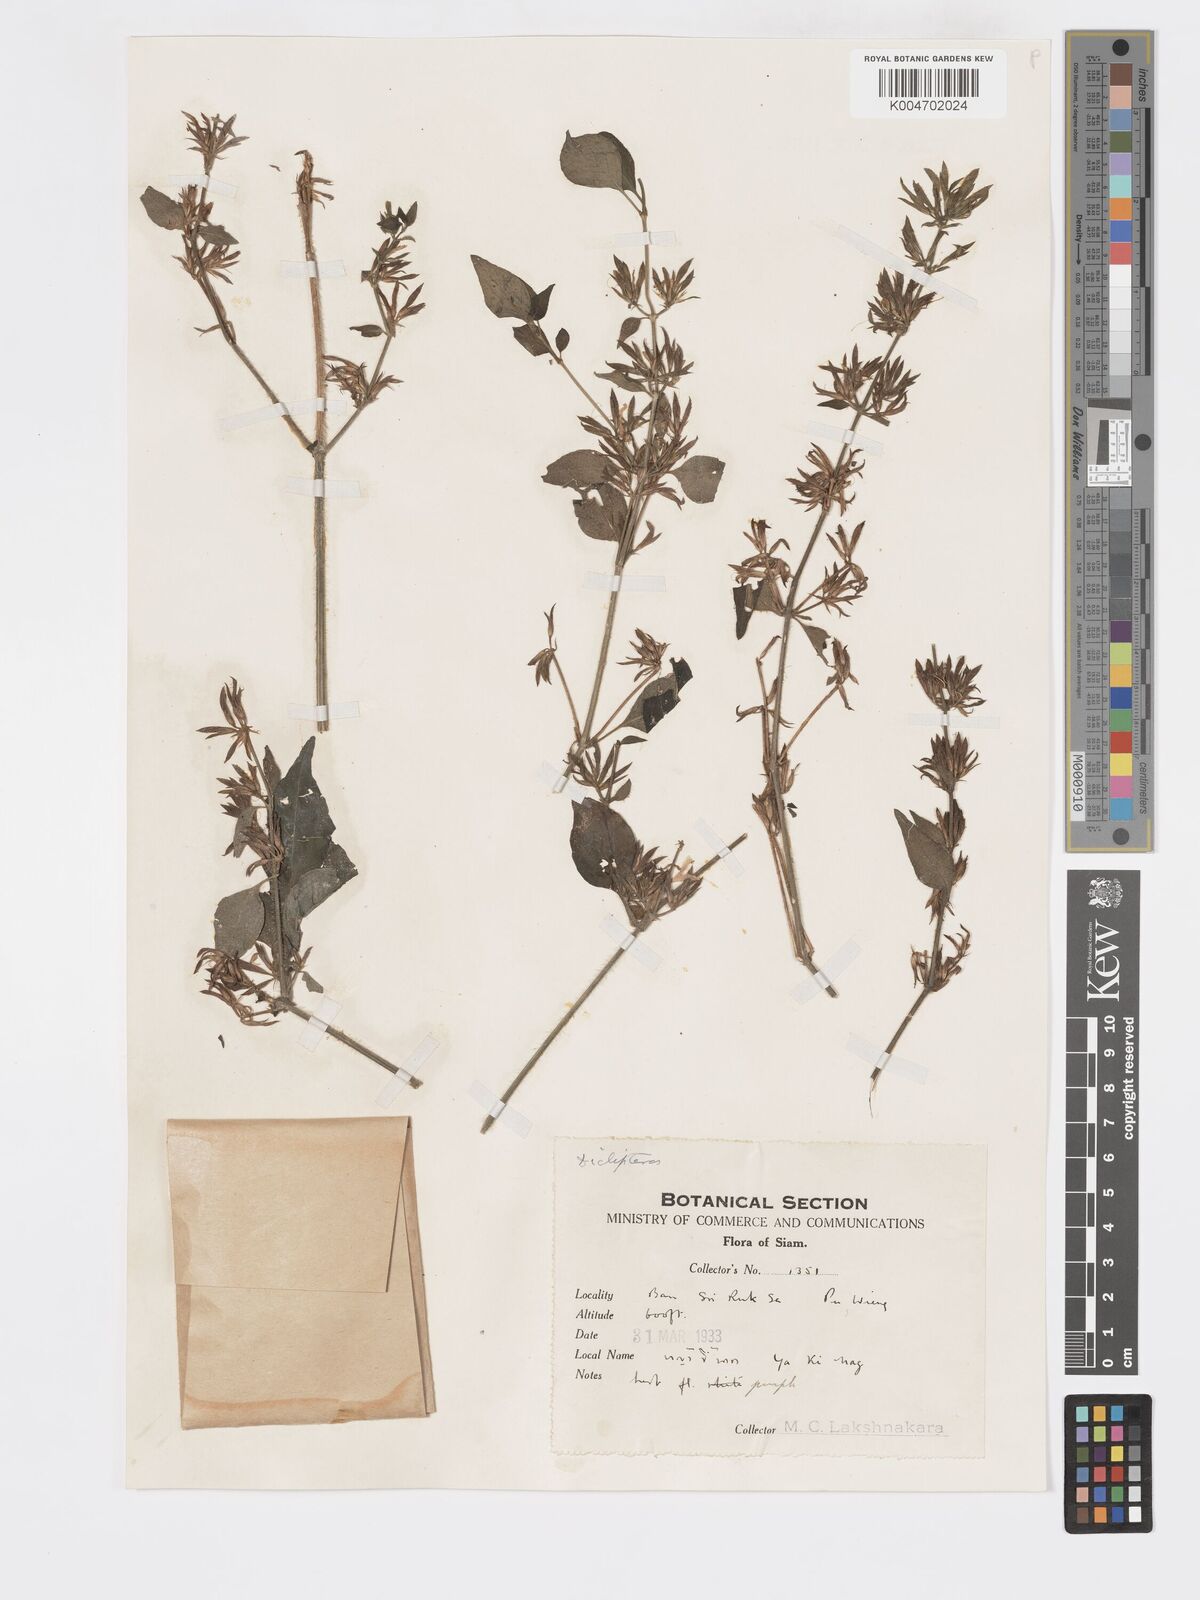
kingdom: Plantae
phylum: Tracheophyta
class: Magnoliopsida
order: Lamiales
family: Acanthaceae
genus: Dicliptera
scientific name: Dicliptera
